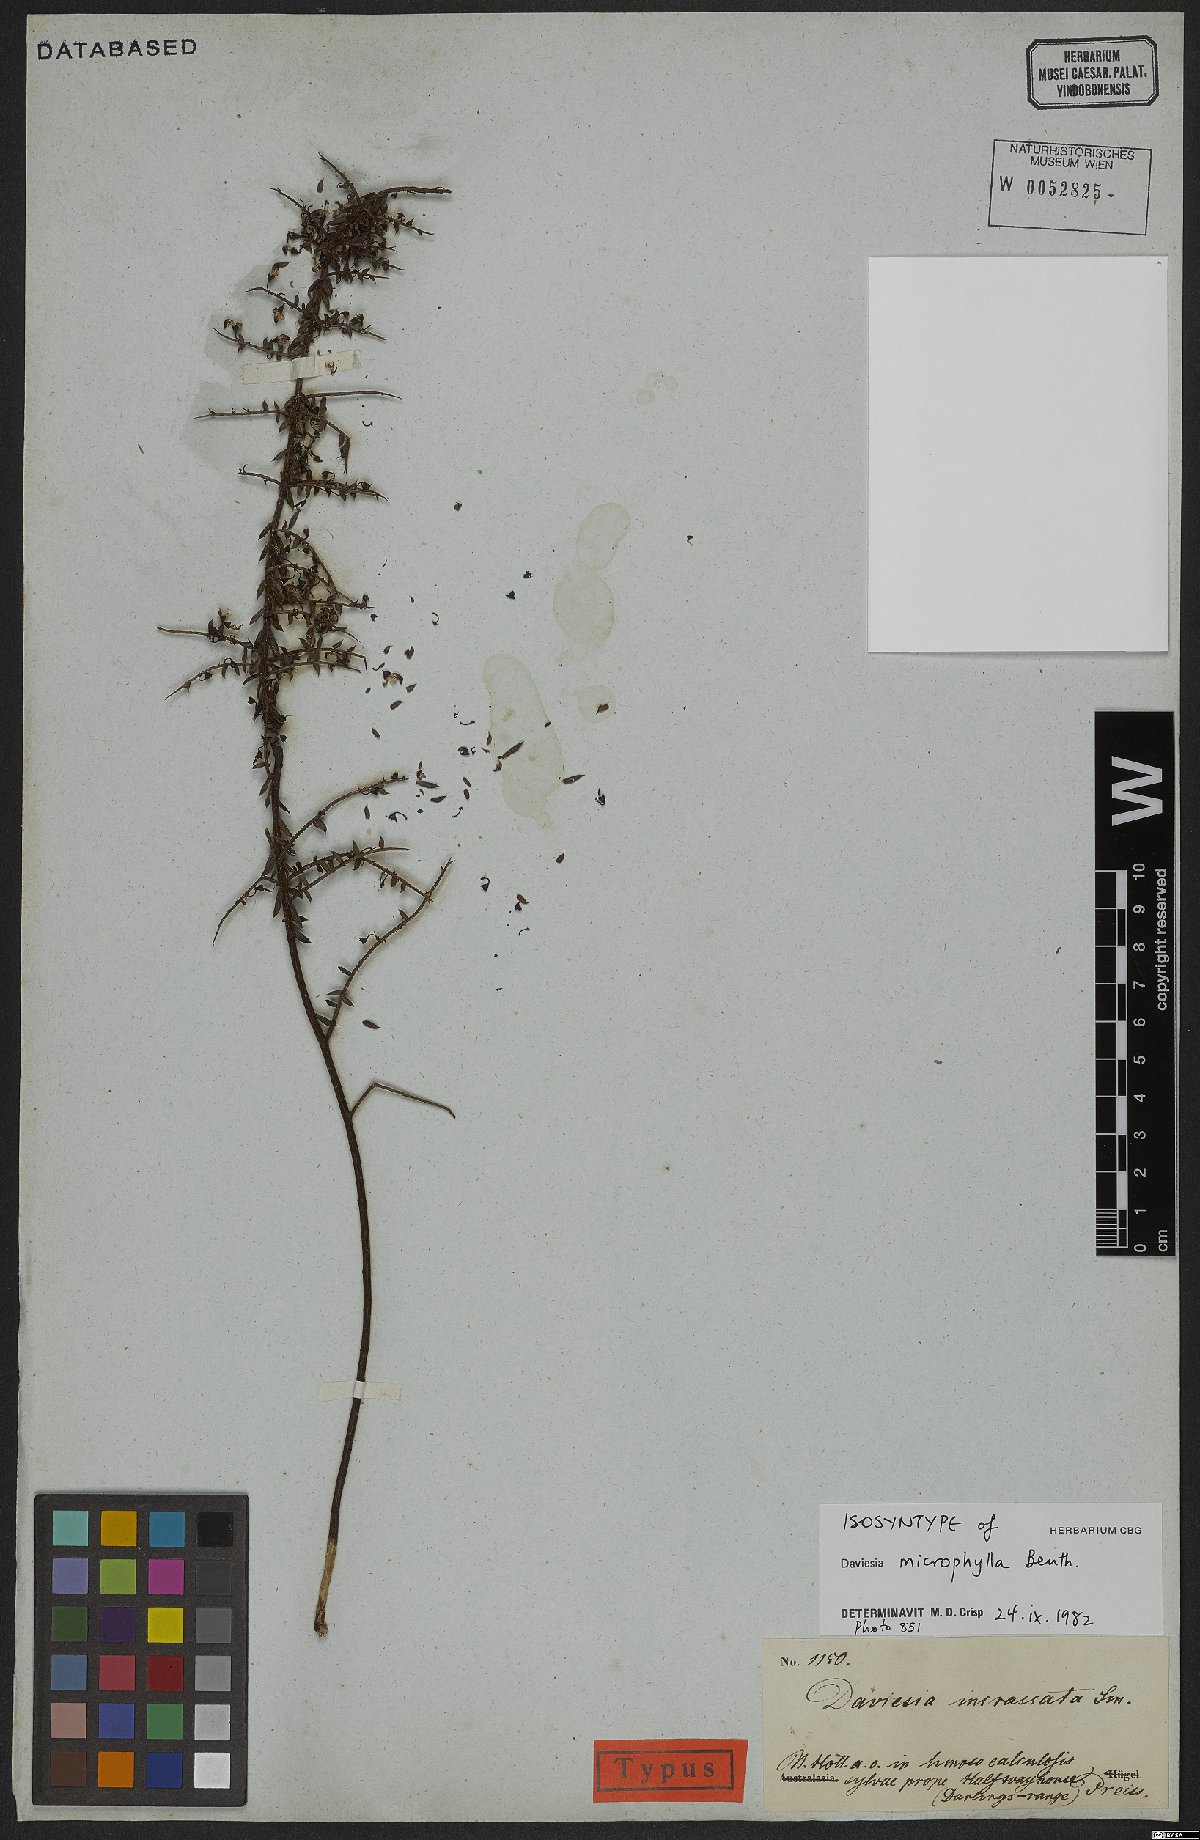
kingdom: Plantae
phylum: Tracheophyta
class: Magnoliopsida
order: Fabales
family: Fabaceae
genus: Daviesia
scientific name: Daviesia microphylla
